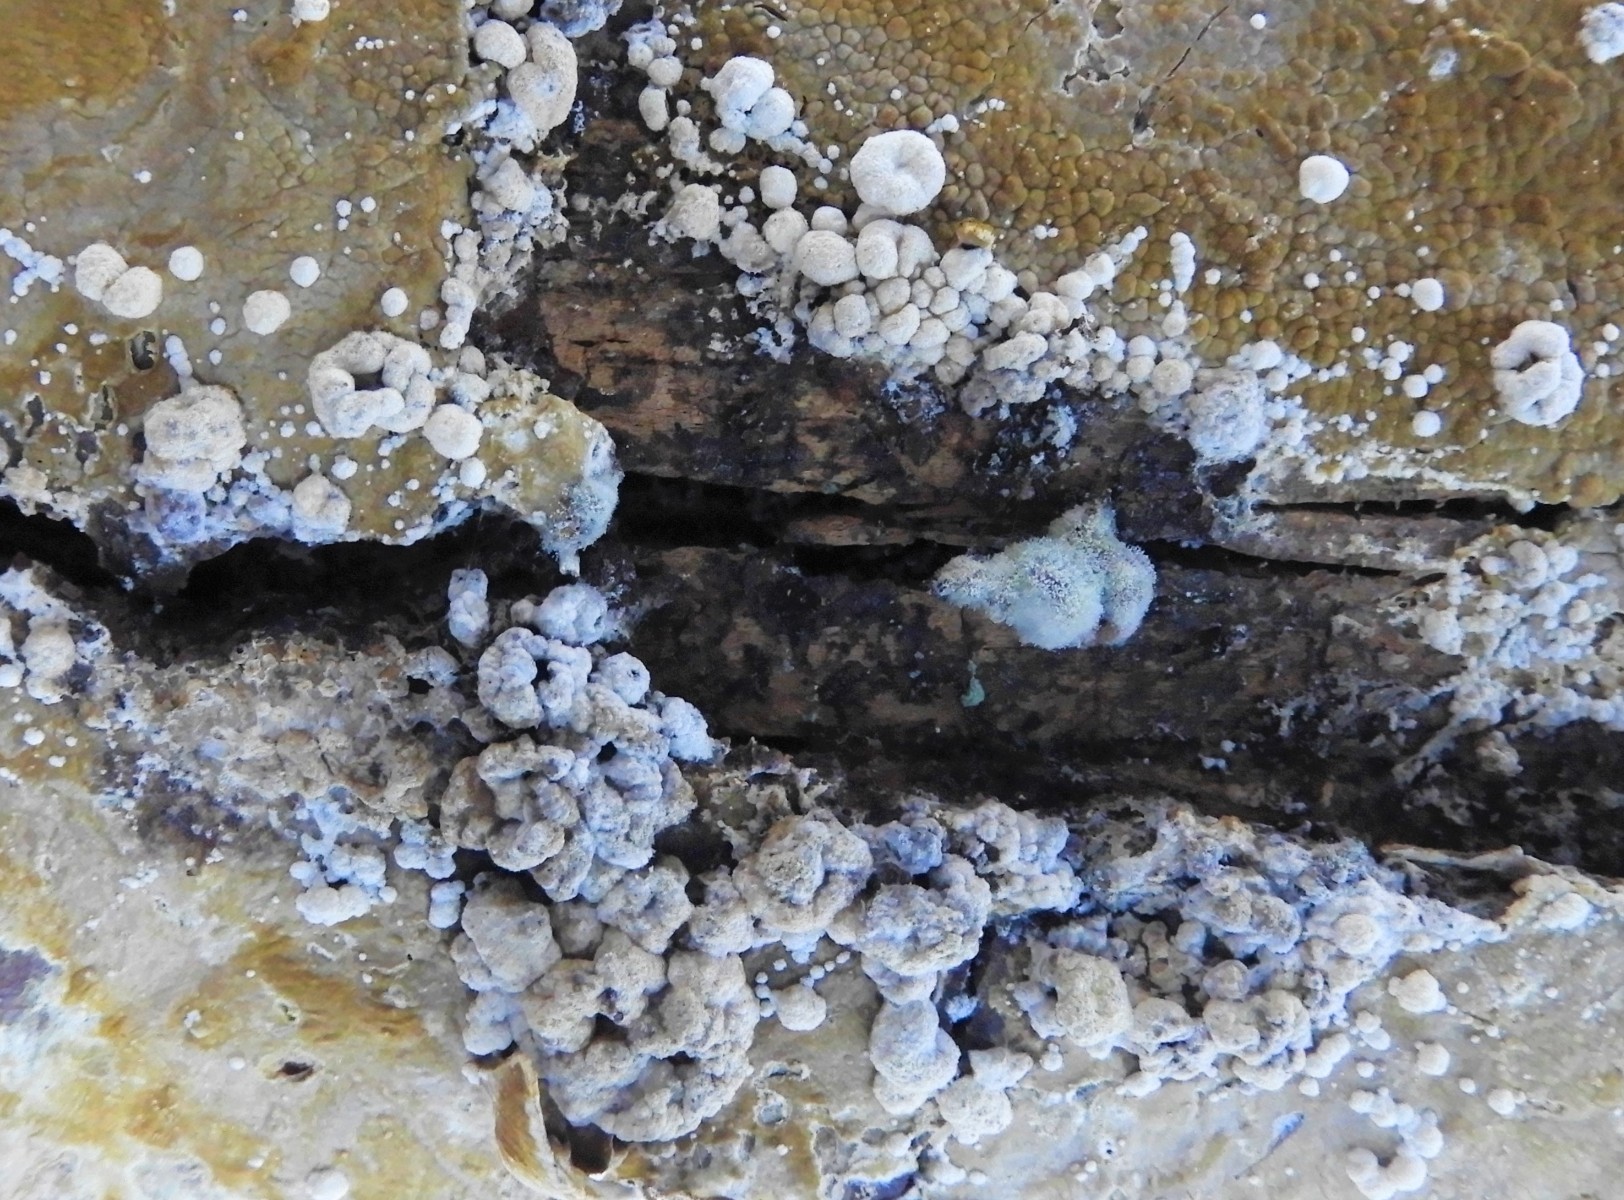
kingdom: Fungi
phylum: Ascomycota
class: Sordariomycetes
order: Xylariales
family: Hypoxylaceae
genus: Nodulisporium
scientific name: Nodulisporium cecidiogenes
